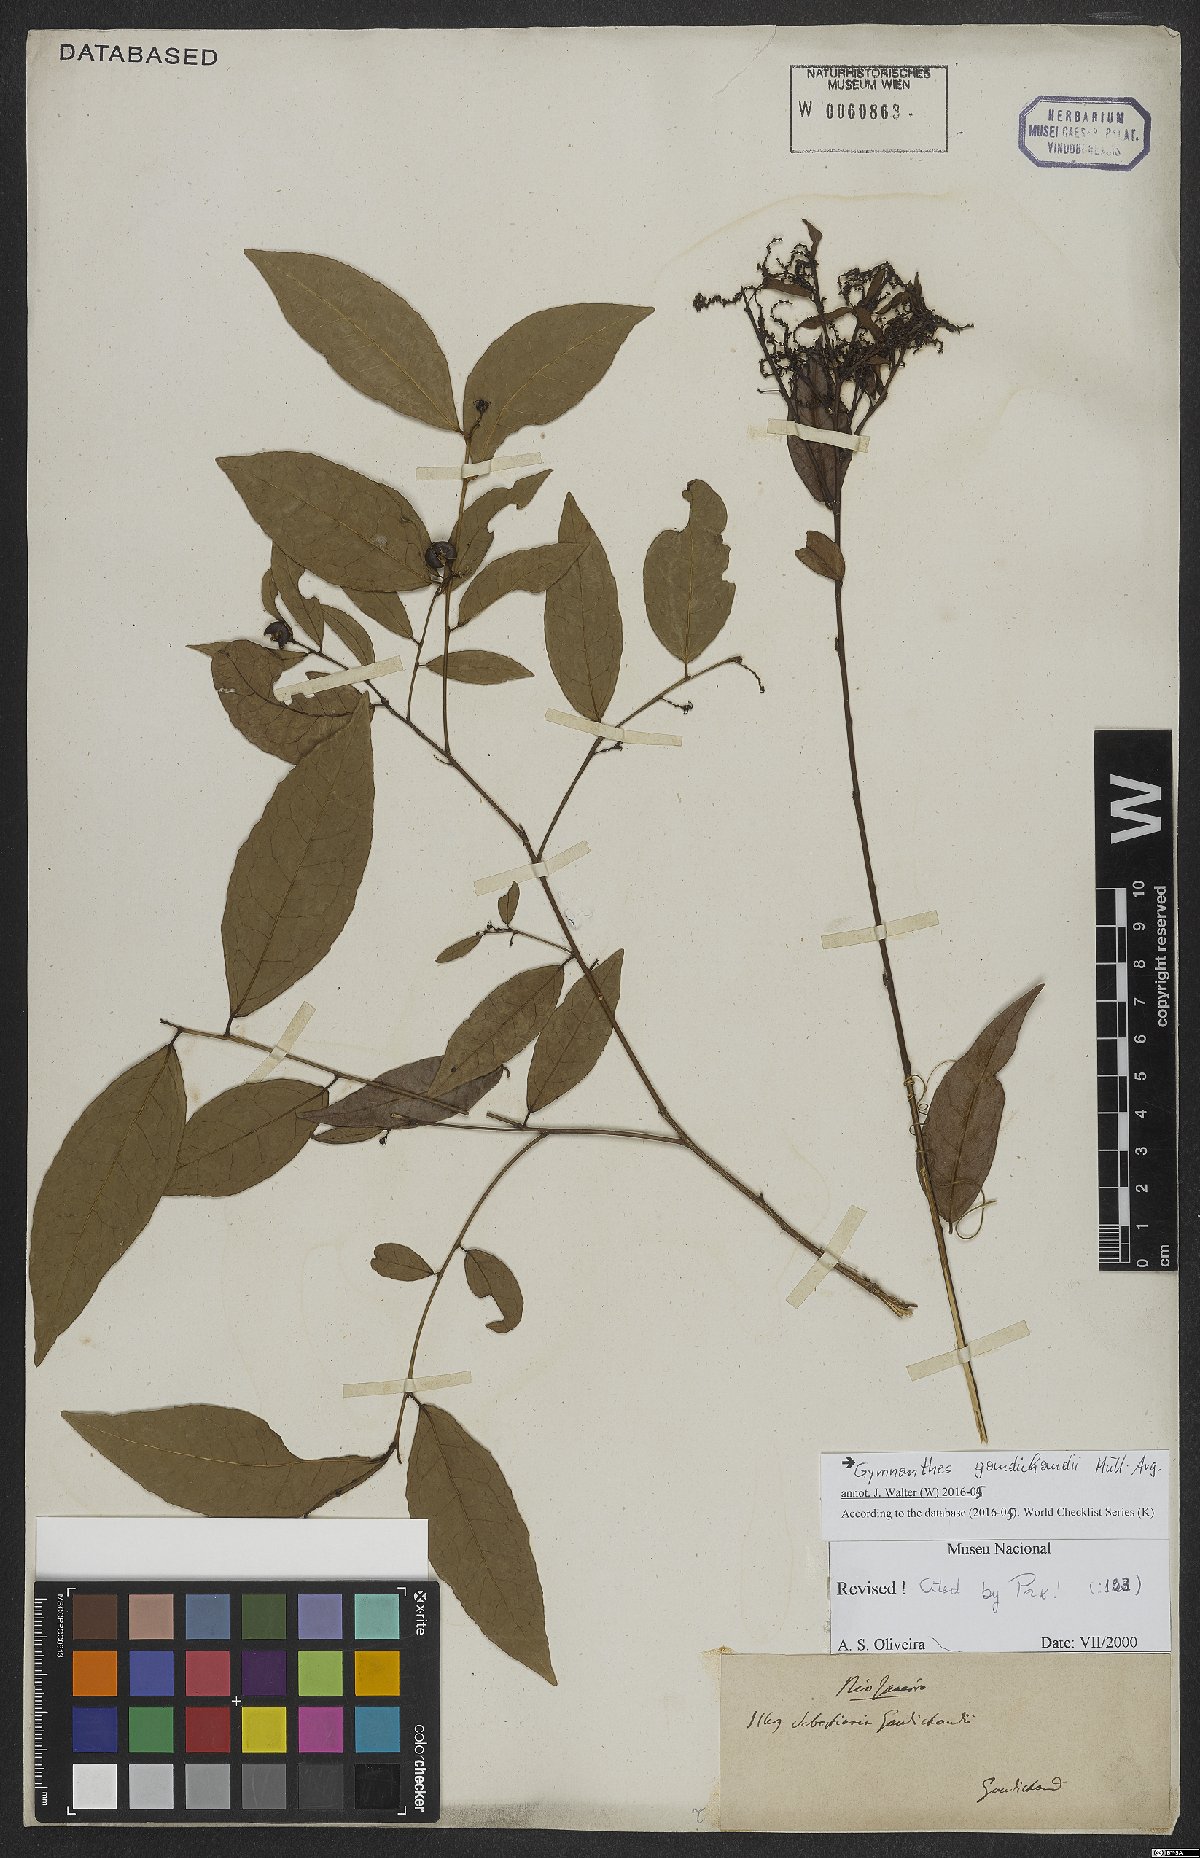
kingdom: Plantae
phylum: Tracheophyta
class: Magnoliopsida
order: Malpighiales
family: Euphorbiaceae
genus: Gymnanthes
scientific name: Gymnanthes gaudichaudii
